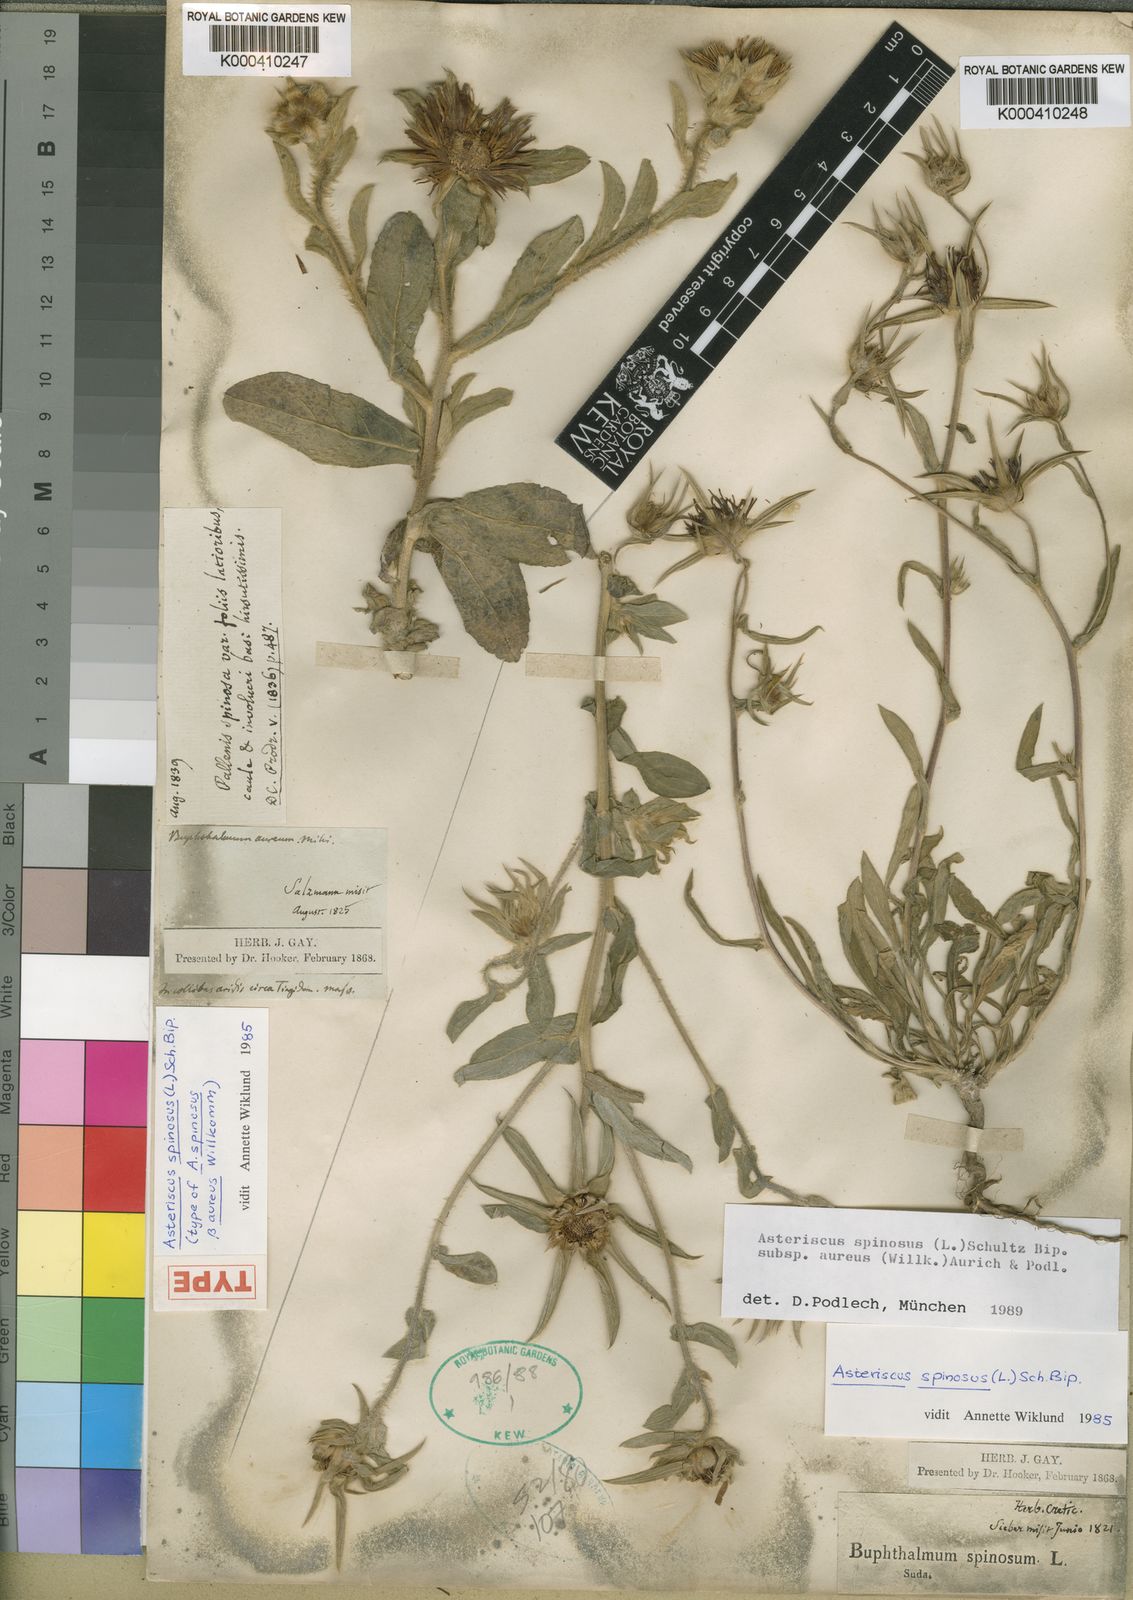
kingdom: Plantae
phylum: Tracheophyta
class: Magnoliopsida
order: Asterales
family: Asteraceae
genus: Pallenis
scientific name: Pallenis spinosa
